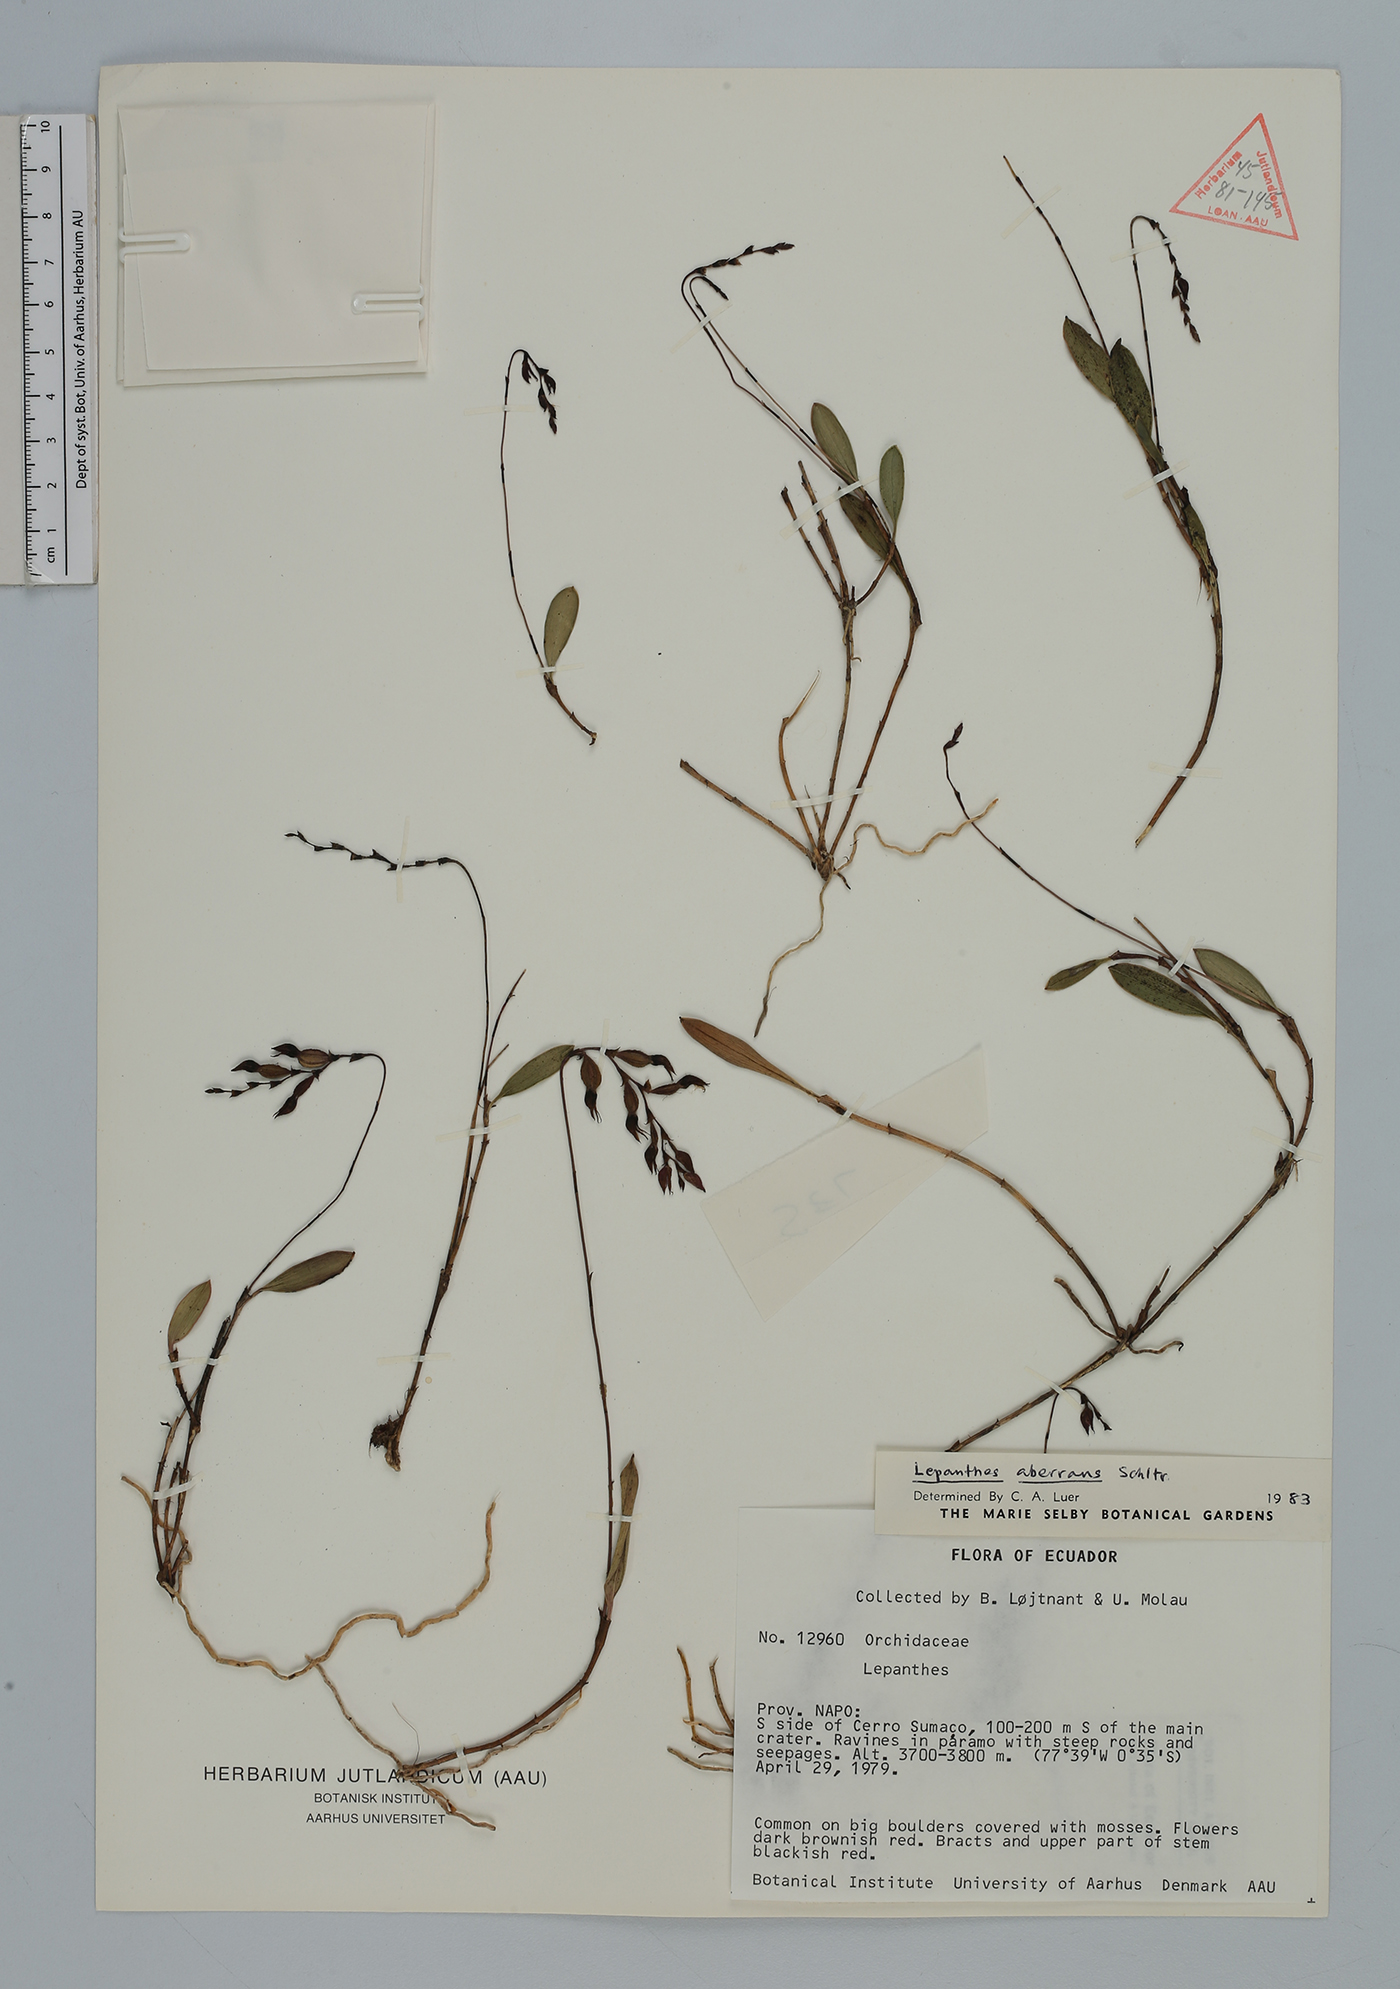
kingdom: Plantae
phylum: Tracheophyta
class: Liliopsida
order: Asparagales
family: Orchidaceae
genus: Draconanthes
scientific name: Draconanthes aberrans
